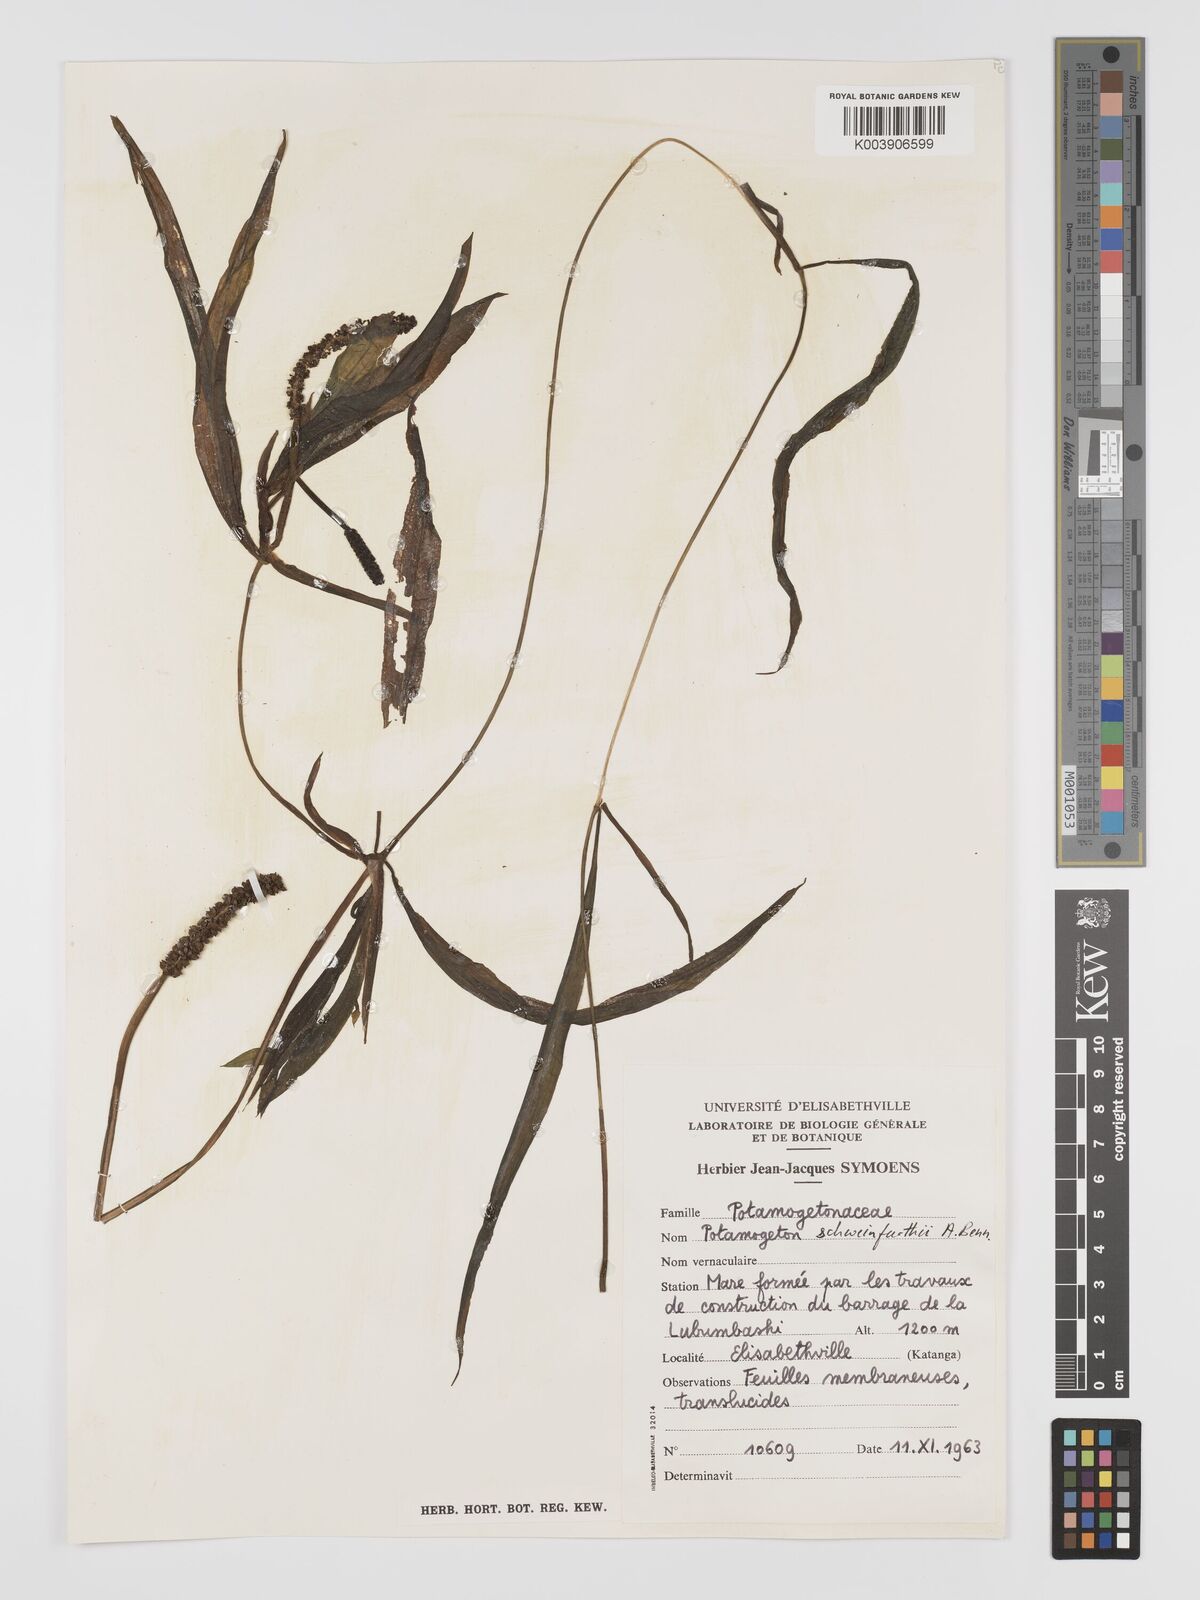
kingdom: Plantae
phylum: Tracheophyta
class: Liliopsida
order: Alismatales
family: Potamogetonaceae
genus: Potamogeton
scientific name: Potamogeton schweinfurthii
